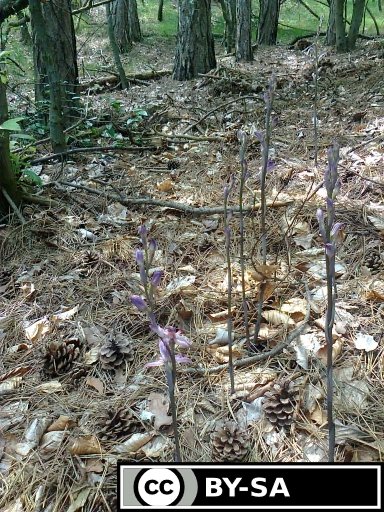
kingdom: Plantae
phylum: Tracheophyta
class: Liliopsida
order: Asparagales
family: Orchidaceae
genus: Limodorum
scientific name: Limodorum abortivum
